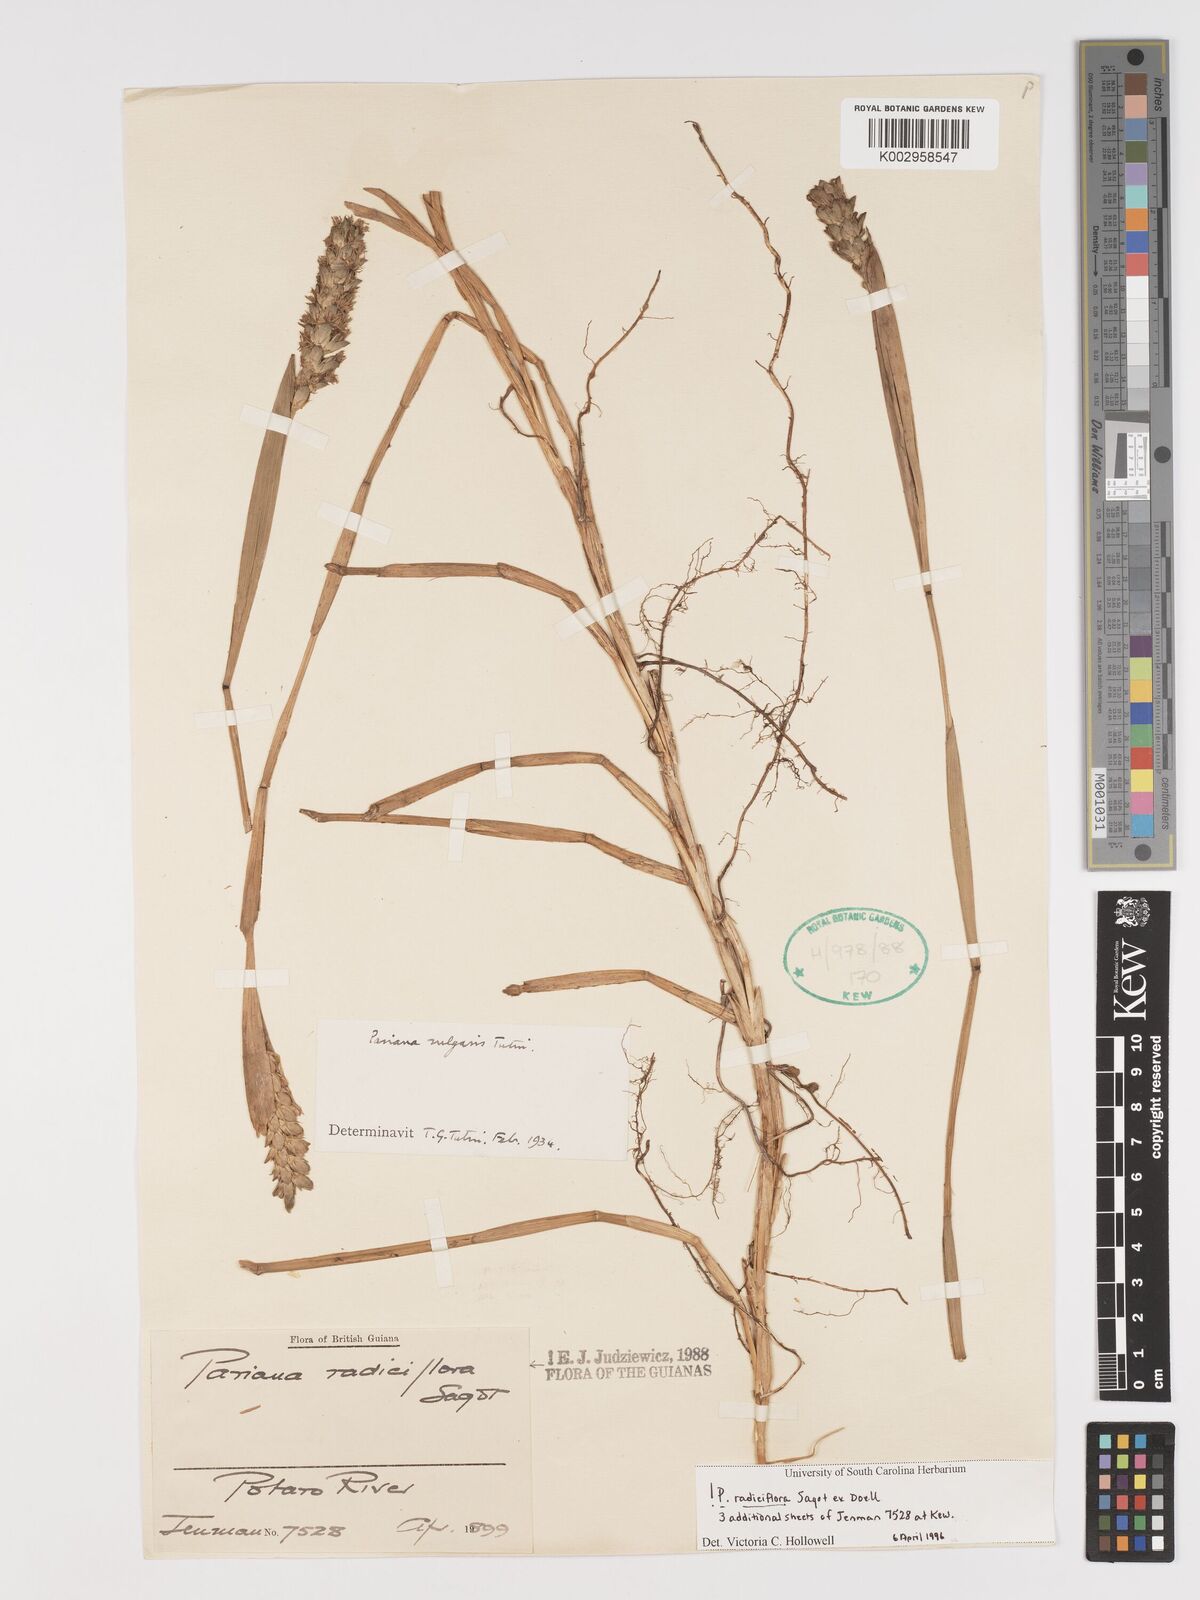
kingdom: Plantae
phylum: Tracheophyta
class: Liliopsida
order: Poales
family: Poaceae
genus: Pariana
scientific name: Pariana radiciflora
